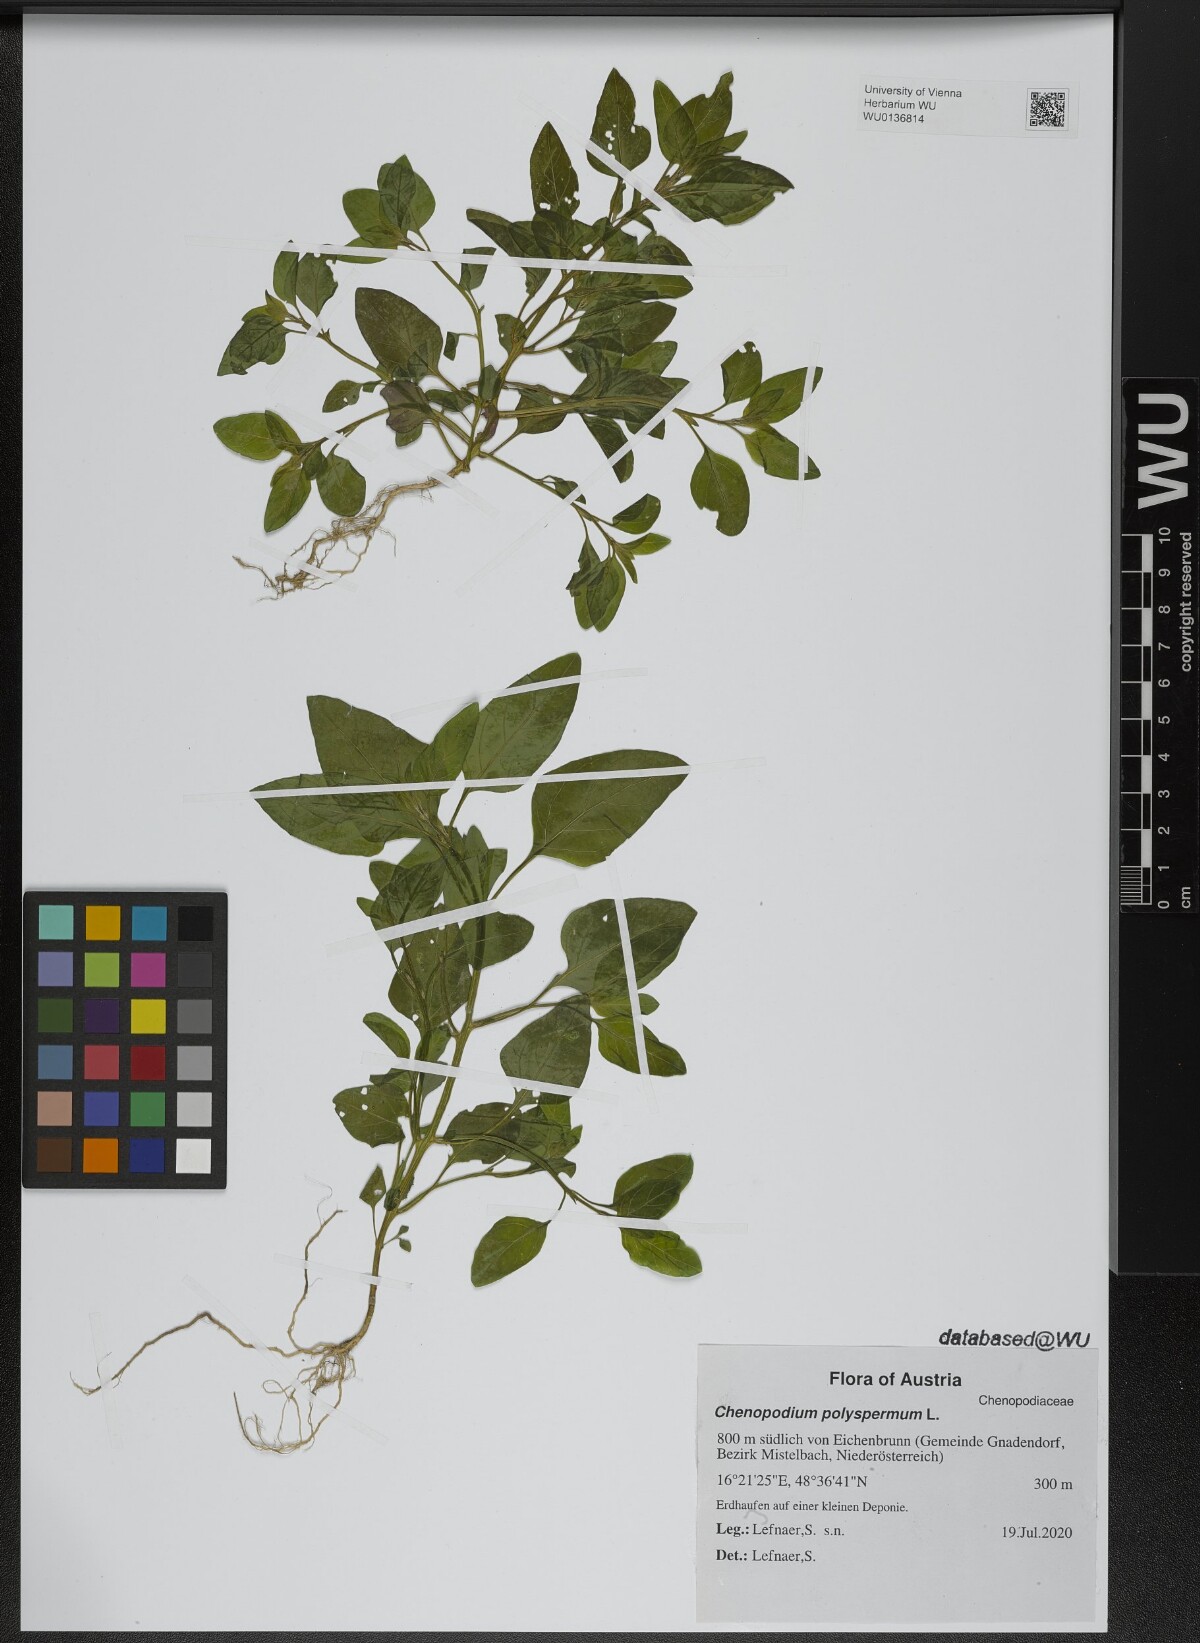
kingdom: Plantae
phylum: Tracheophyta
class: Magnoliopsida
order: Caryophyllales
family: Amaranthaceae
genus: Lipandra
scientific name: Lipandra polysperma
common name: Many-seed goosefoot
